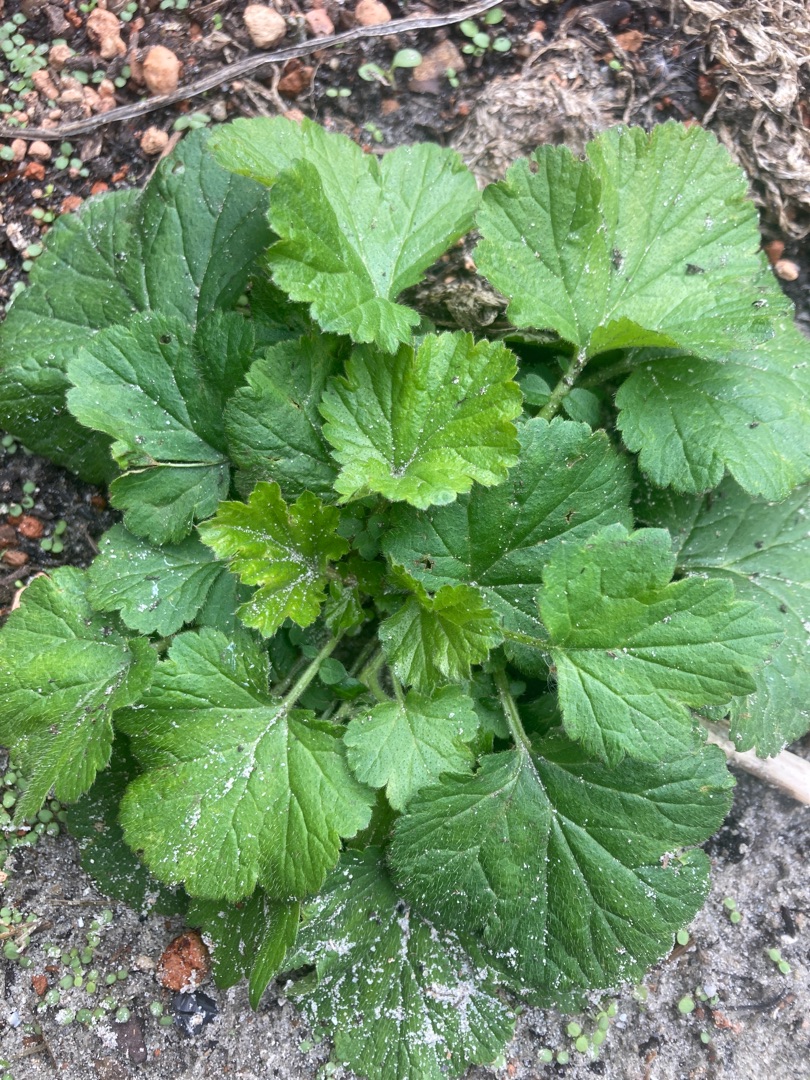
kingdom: Plantae
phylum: Tracheophyta
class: Magnoliopsida
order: Rosales
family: Rosaceae
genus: Geum
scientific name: Geum urbanum
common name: Feber-nellikerod
